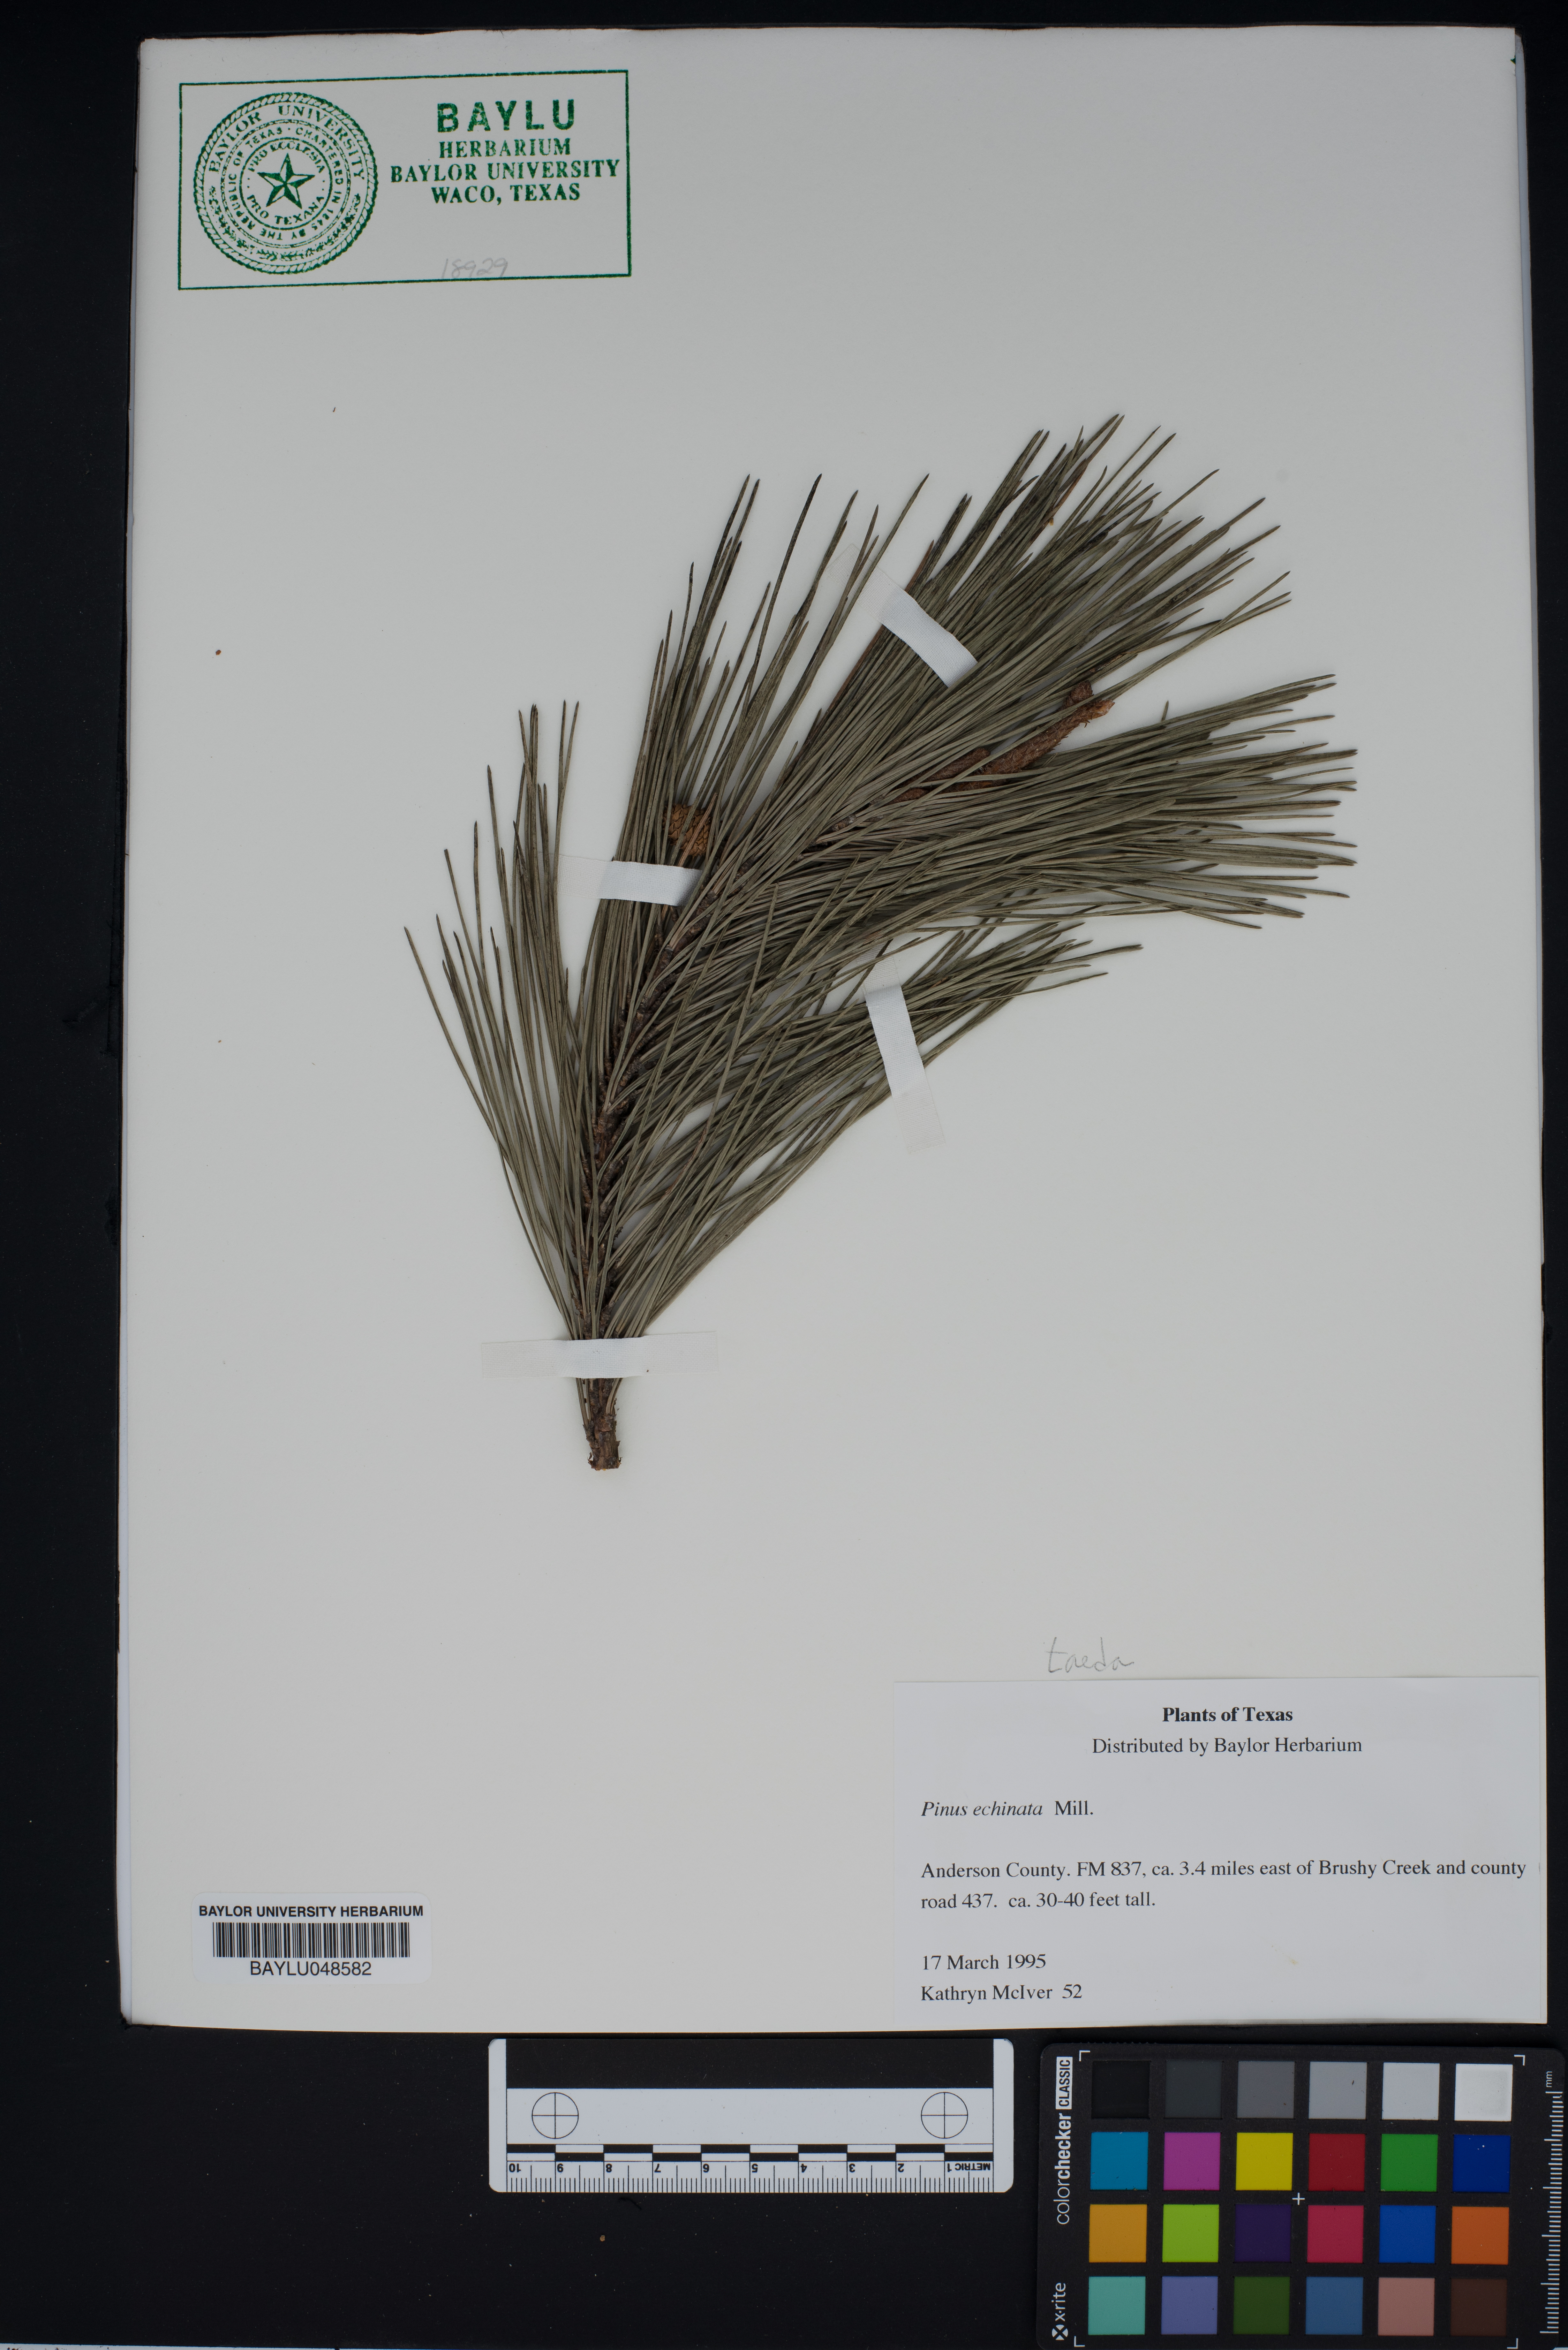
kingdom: Plantae
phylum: Tracheophyta
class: Pinopsida
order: Pinales
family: Pinaceae
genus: Pinus
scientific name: Pinus echinata
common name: Shortleaf pine
